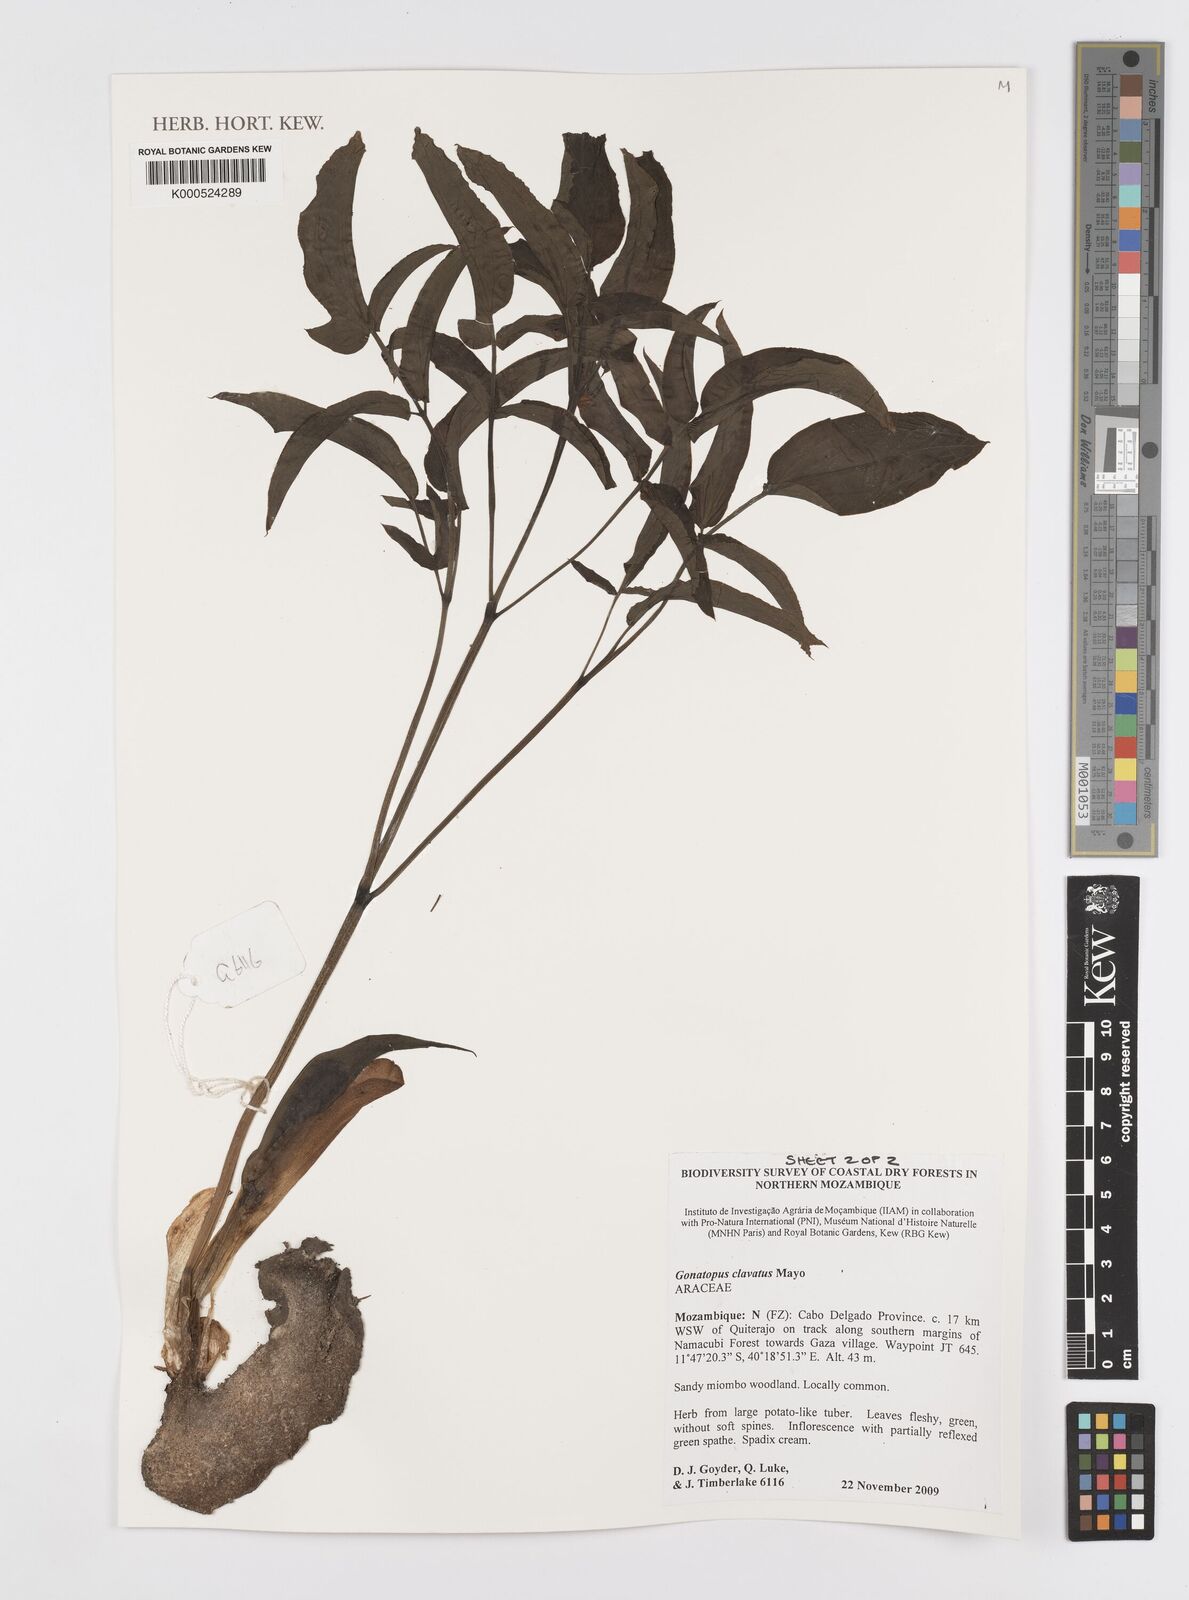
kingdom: Plantae
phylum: Tracheophyta
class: Liliopsida
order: Alismatales
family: Araceae
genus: Gonatopus
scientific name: Gonatopus clavatus
